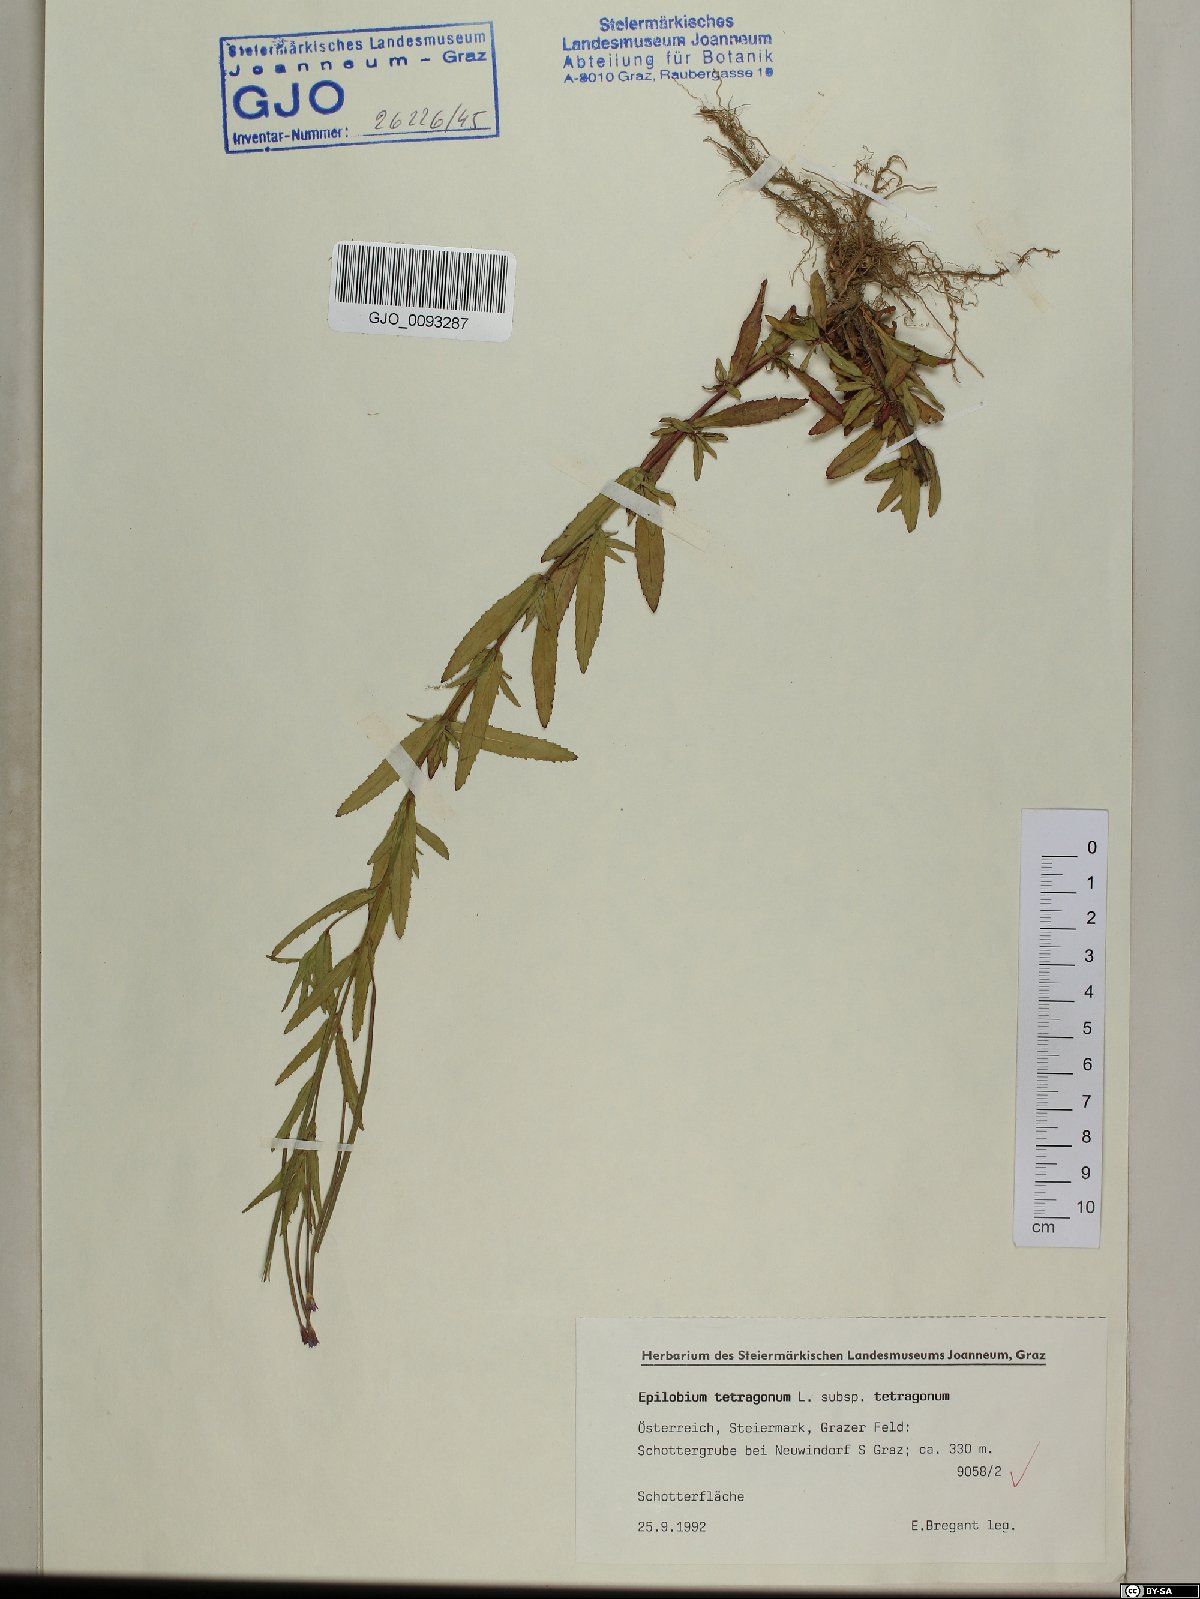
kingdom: Plantae
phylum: Tracheophyta
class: Magnoliopsida
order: Myrtales
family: Onagraceae
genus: Epilobium
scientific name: Epilobium tetragonum
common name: Square-stemmed willowherb
